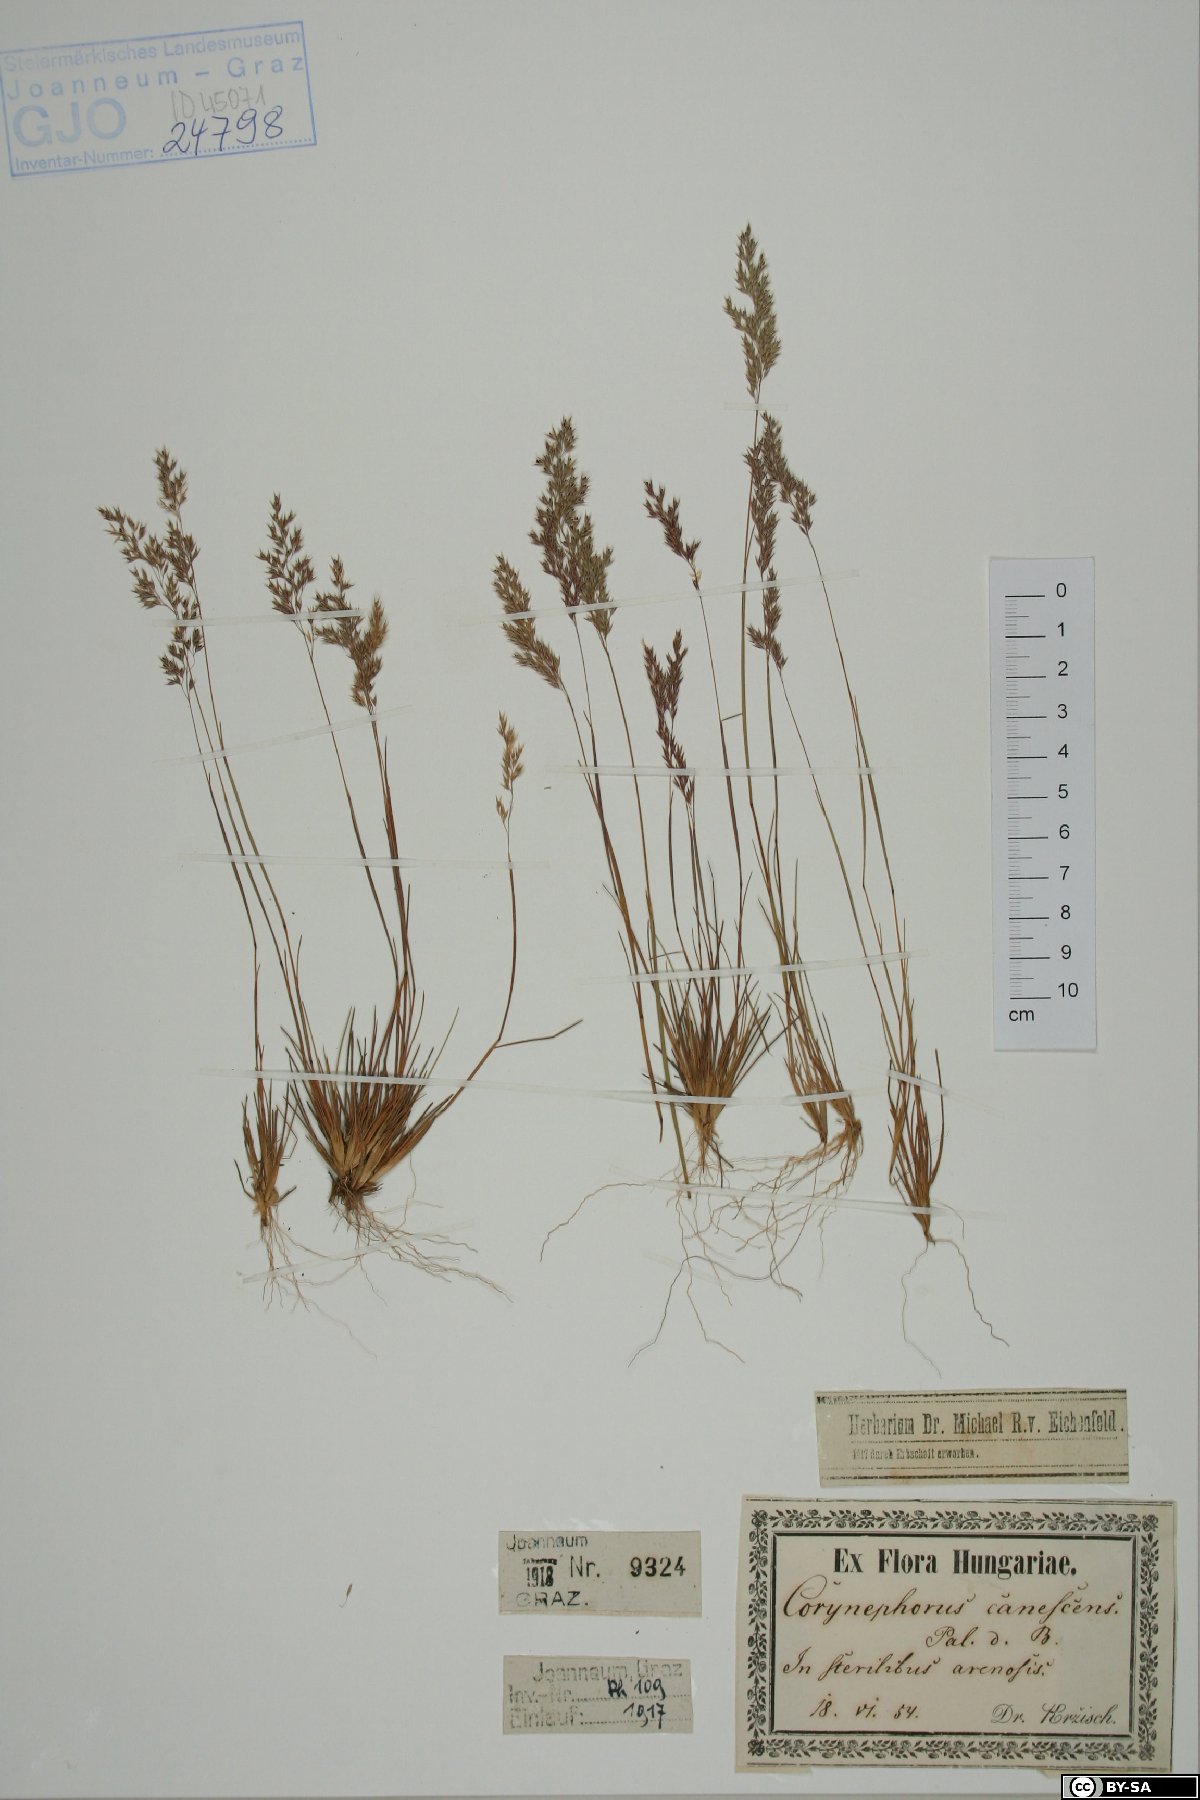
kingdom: Plantae
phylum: Tracheophyta
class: Liliopsida
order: Poales
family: Poaceae
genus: Corynephorus
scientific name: Corynephorus canescens
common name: Grey hair-grass
